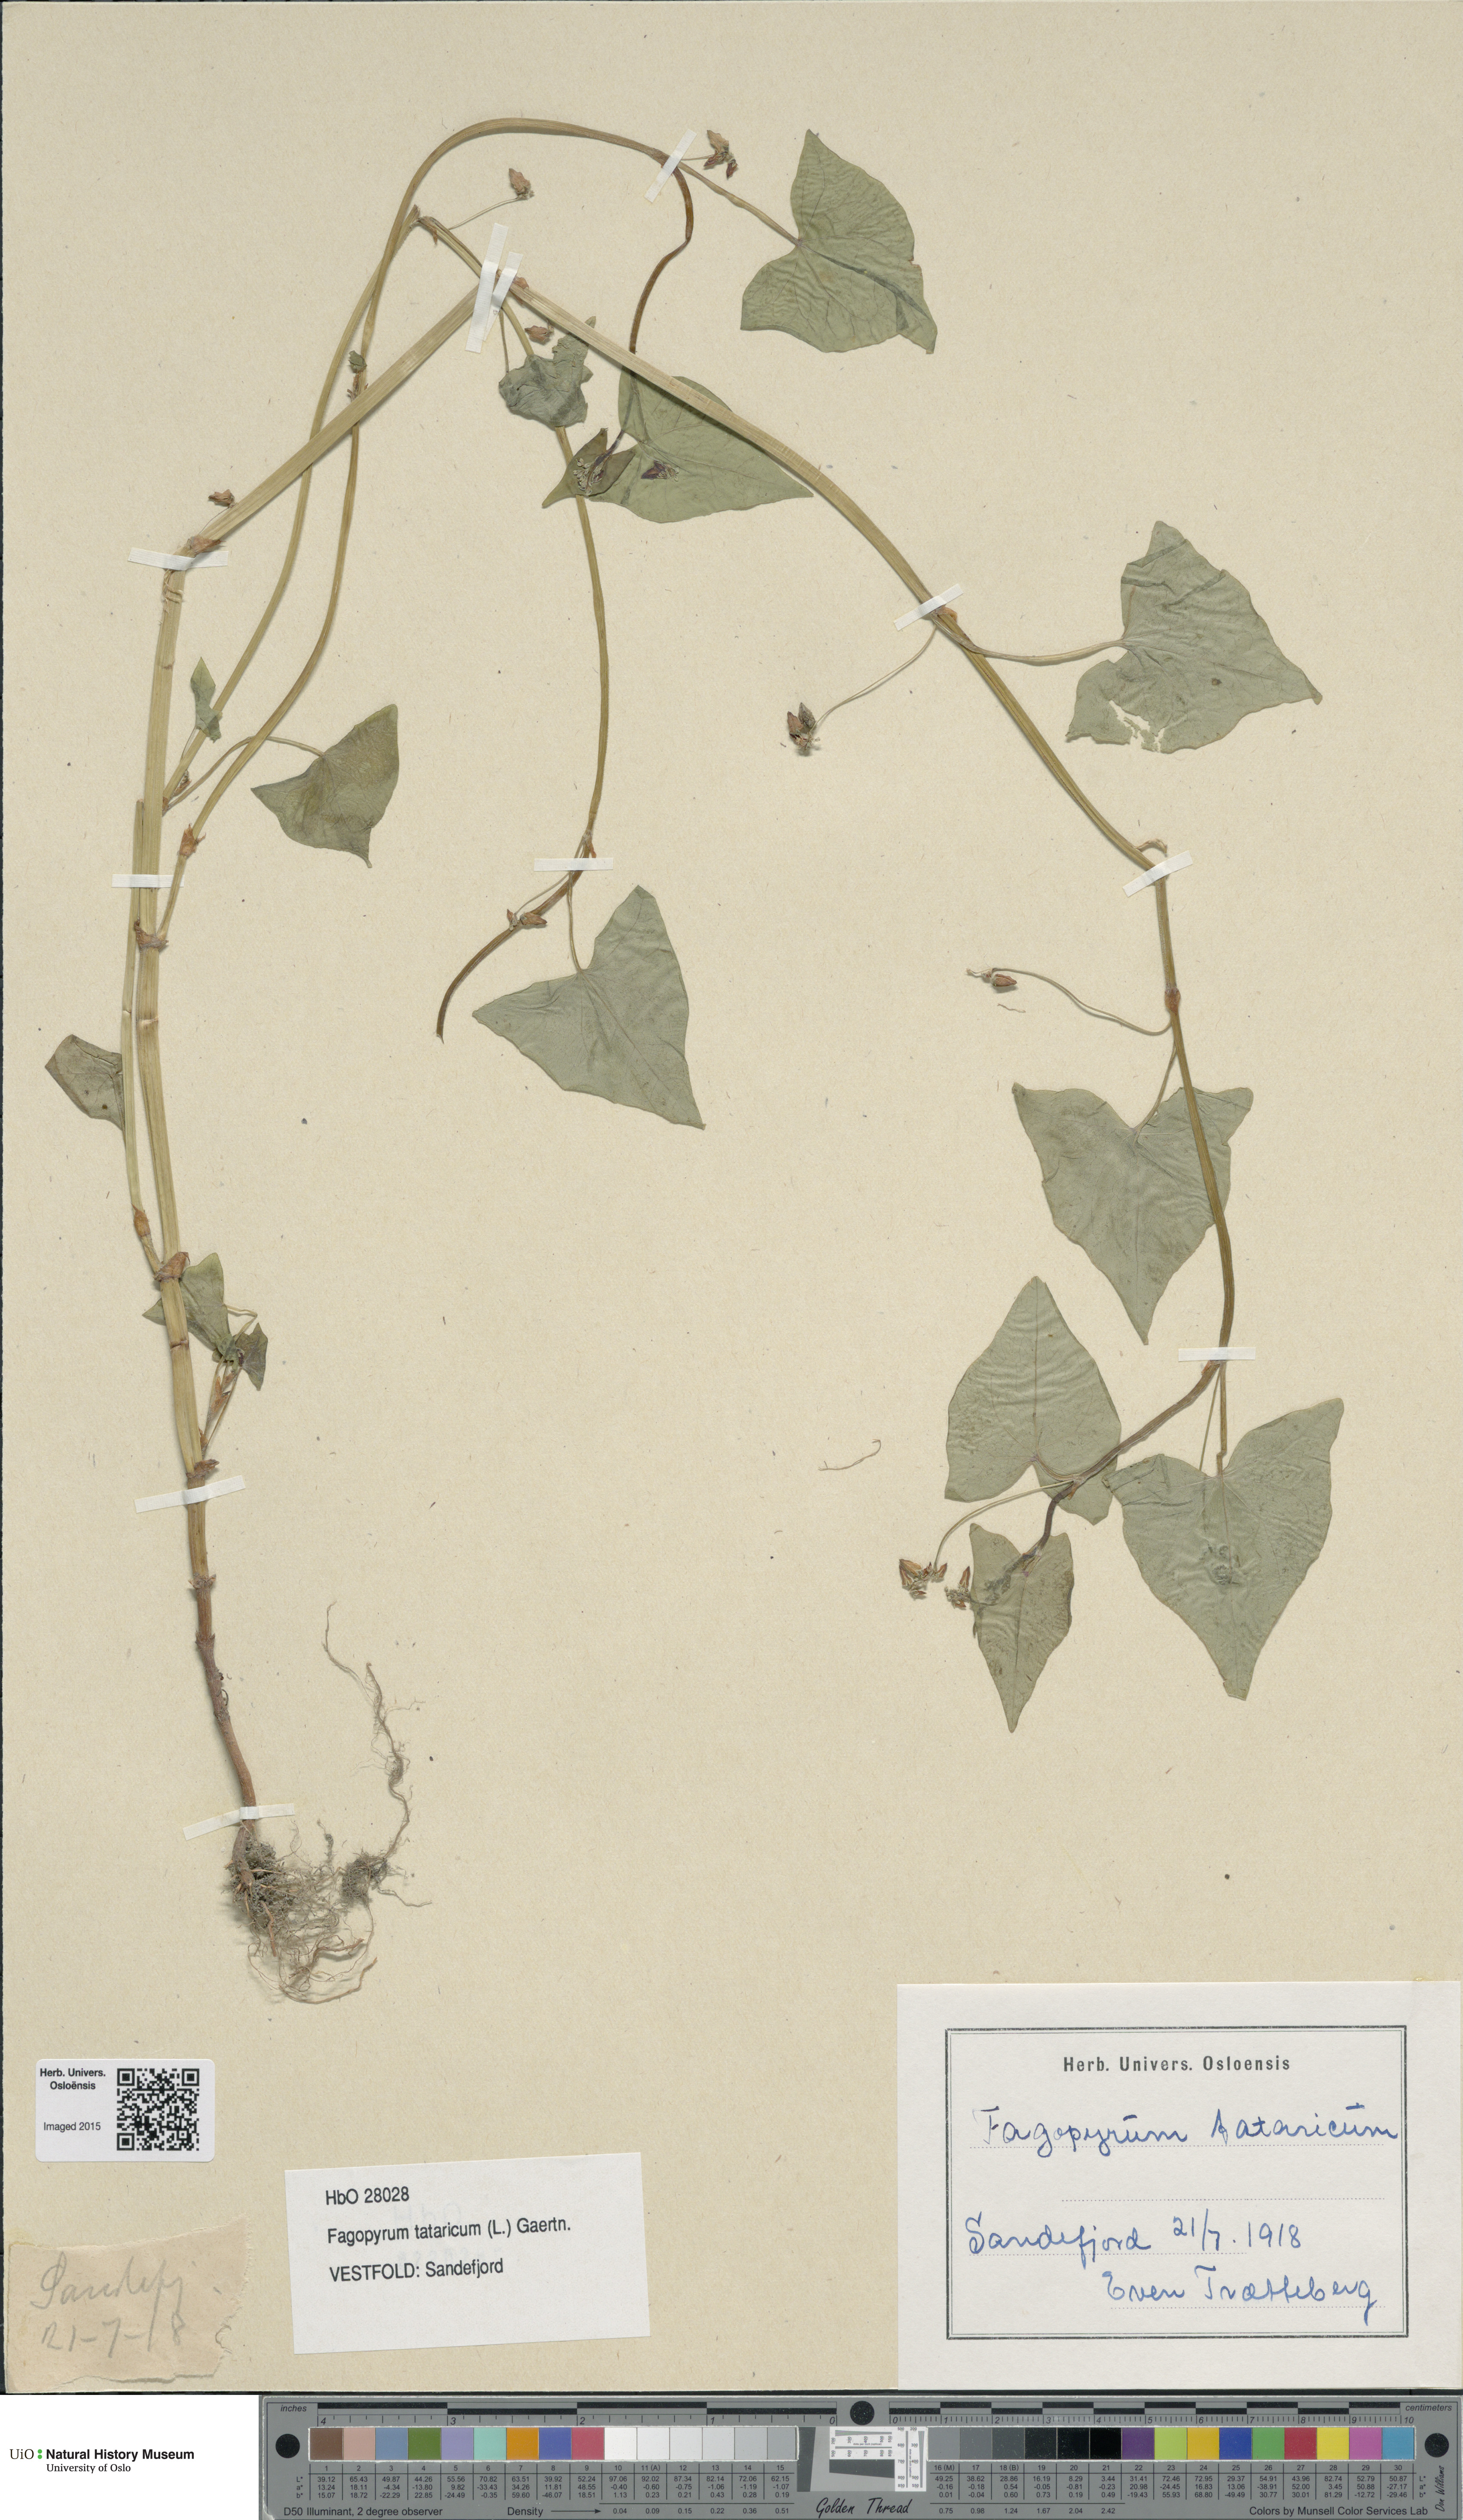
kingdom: Plantae
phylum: Tracheophyta
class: Magnoliopsida
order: Caryophyllales
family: Polygonaceae
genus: Fagopyrum
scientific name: Fagopyrum tataricum
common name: Green buckwheat
